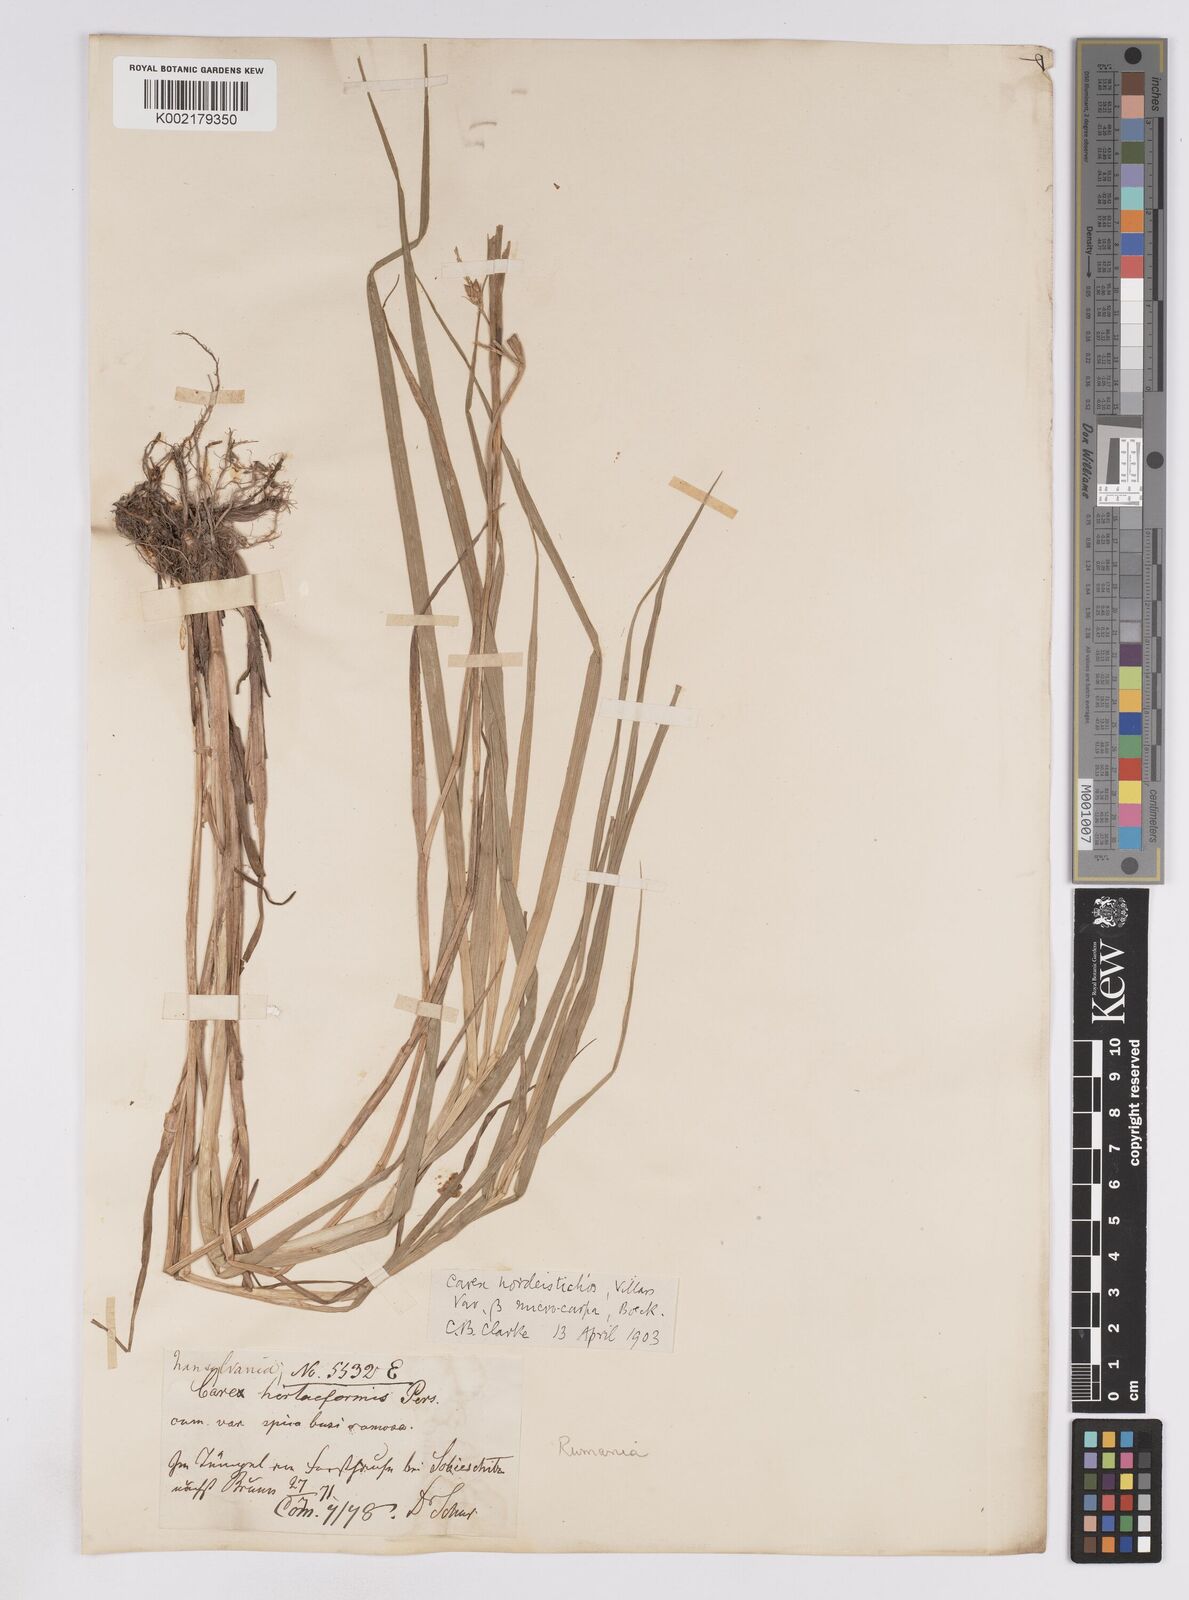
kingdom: Plantae
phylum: Tracheophyta
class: Liliopsida
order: Poales
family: Cyperaceae
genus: Carex
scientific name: Carex hordeistichos
